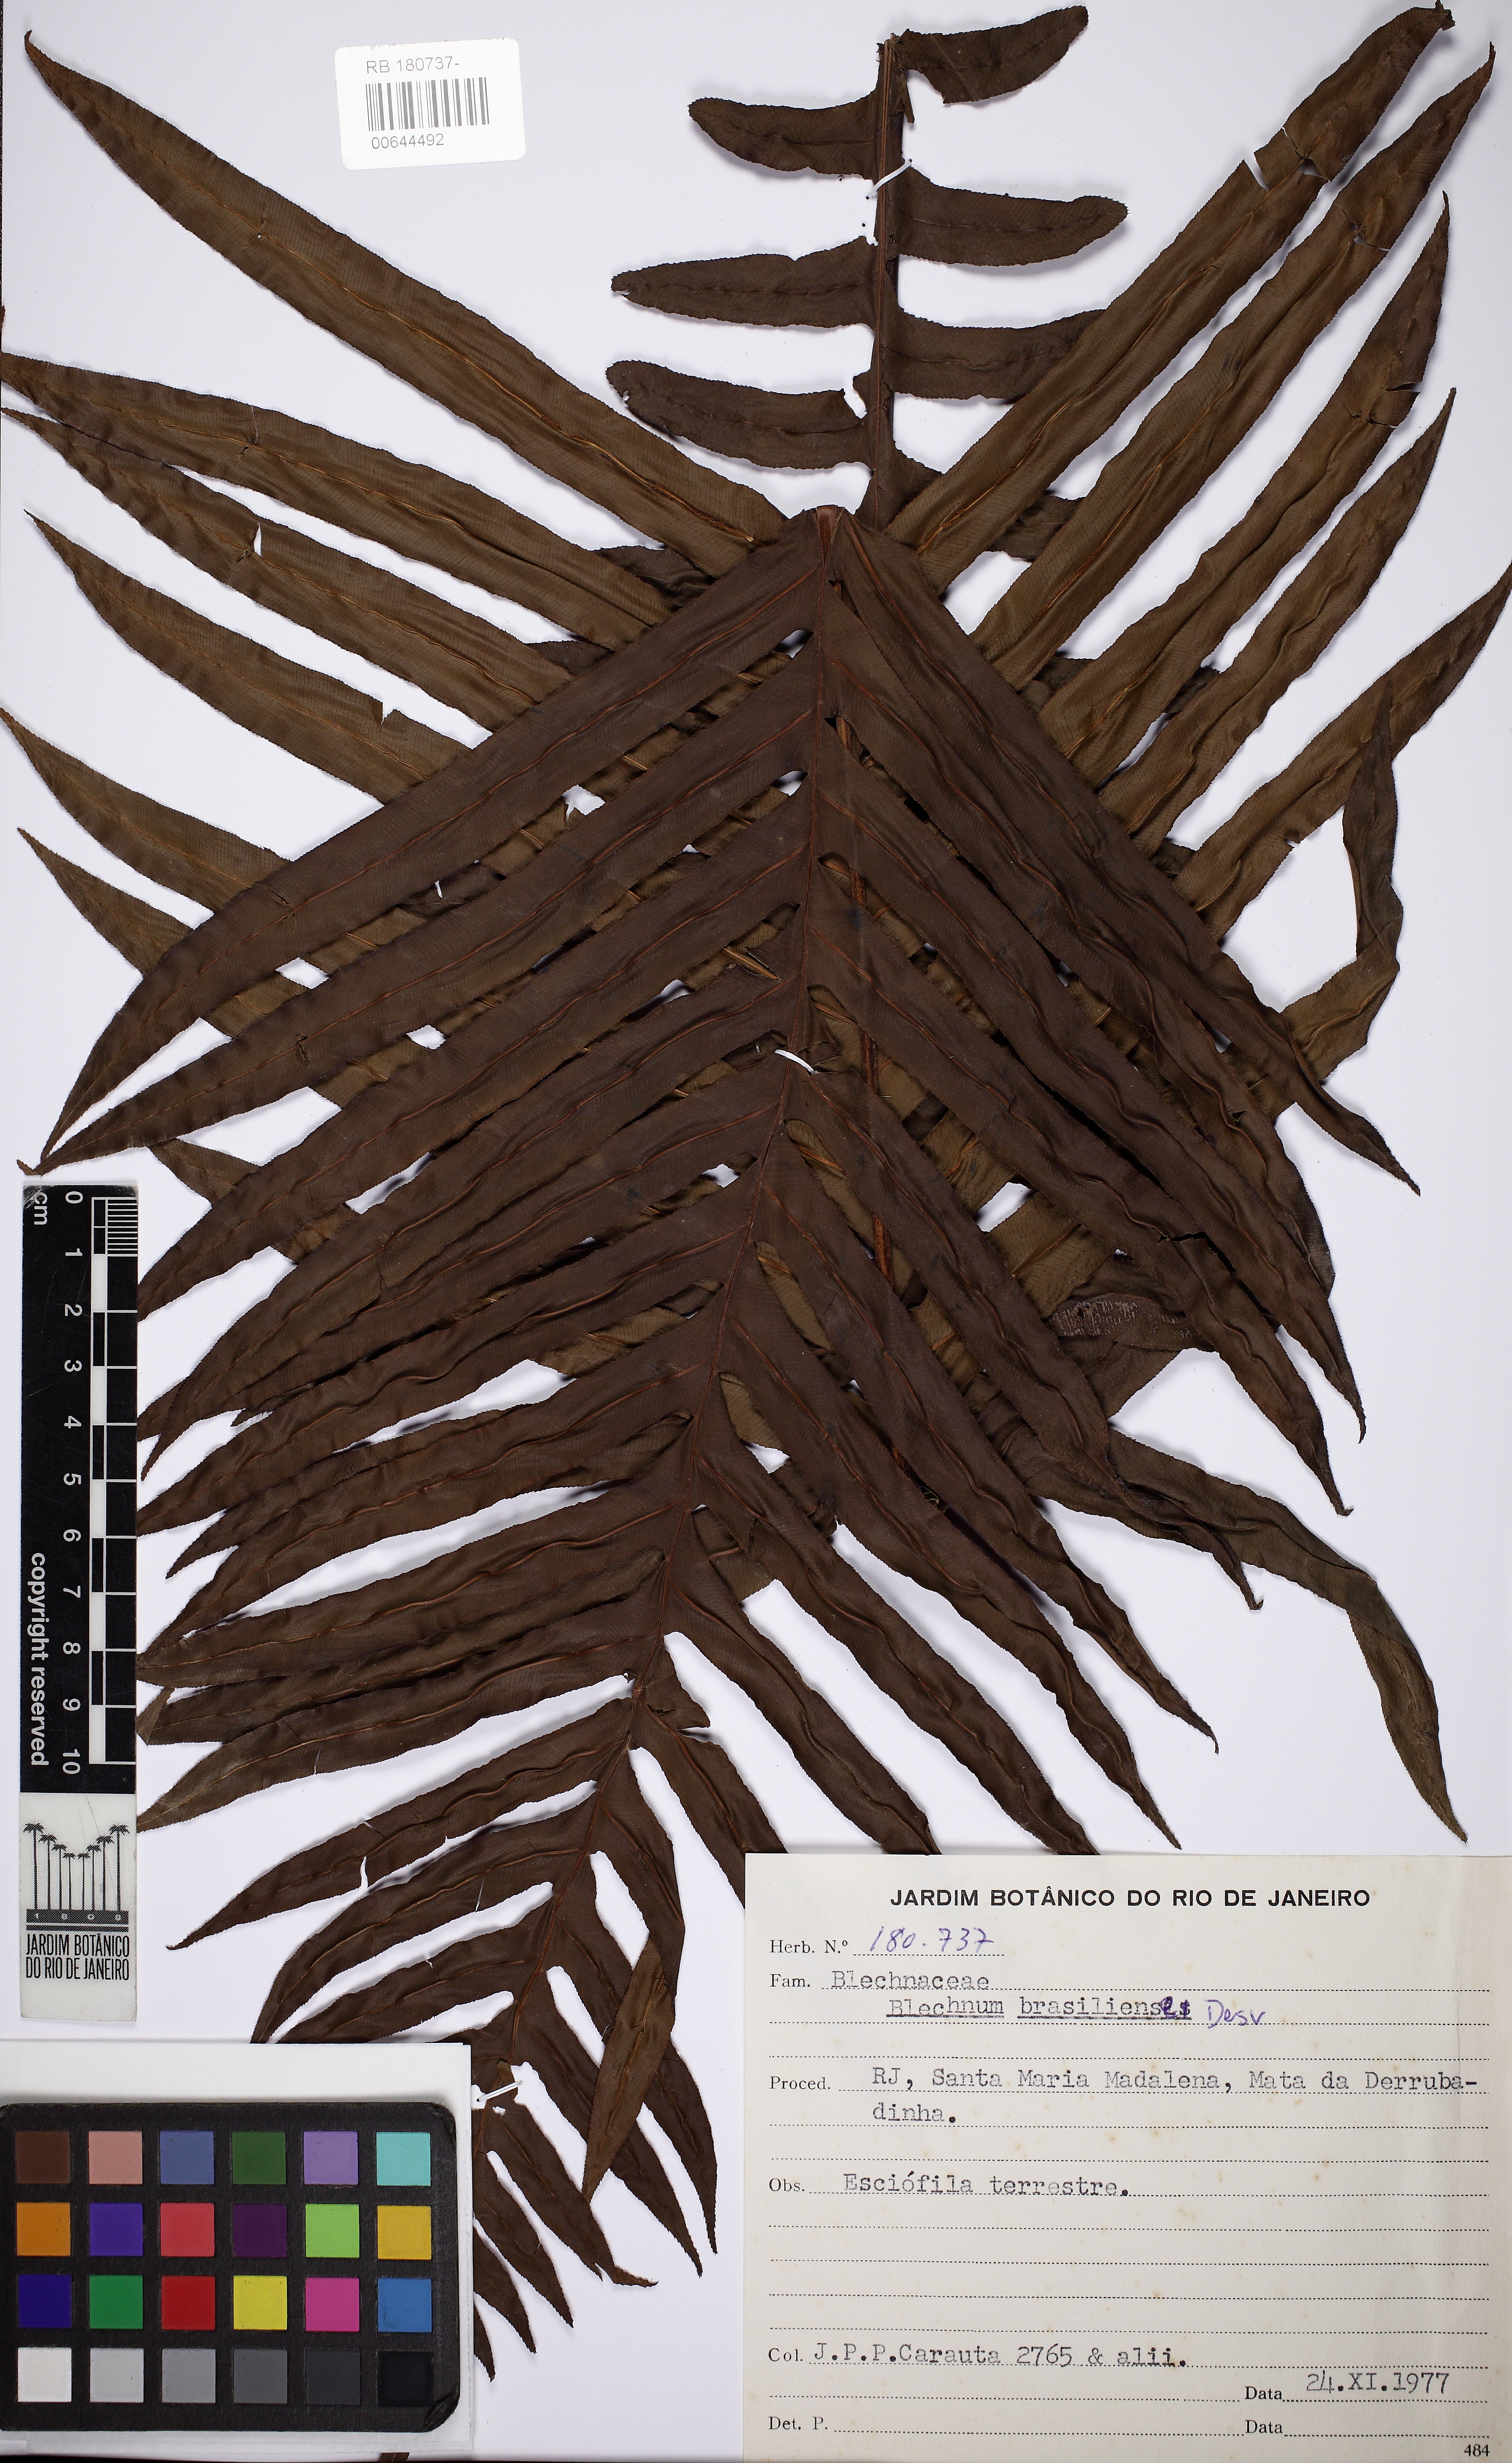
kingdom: Plantae
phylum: Tracheophyta
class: Polypodiopsida
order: Polypodiales
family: Blechnaceae
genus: Neoblechnum
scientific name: Neoblechnum brasiliense
